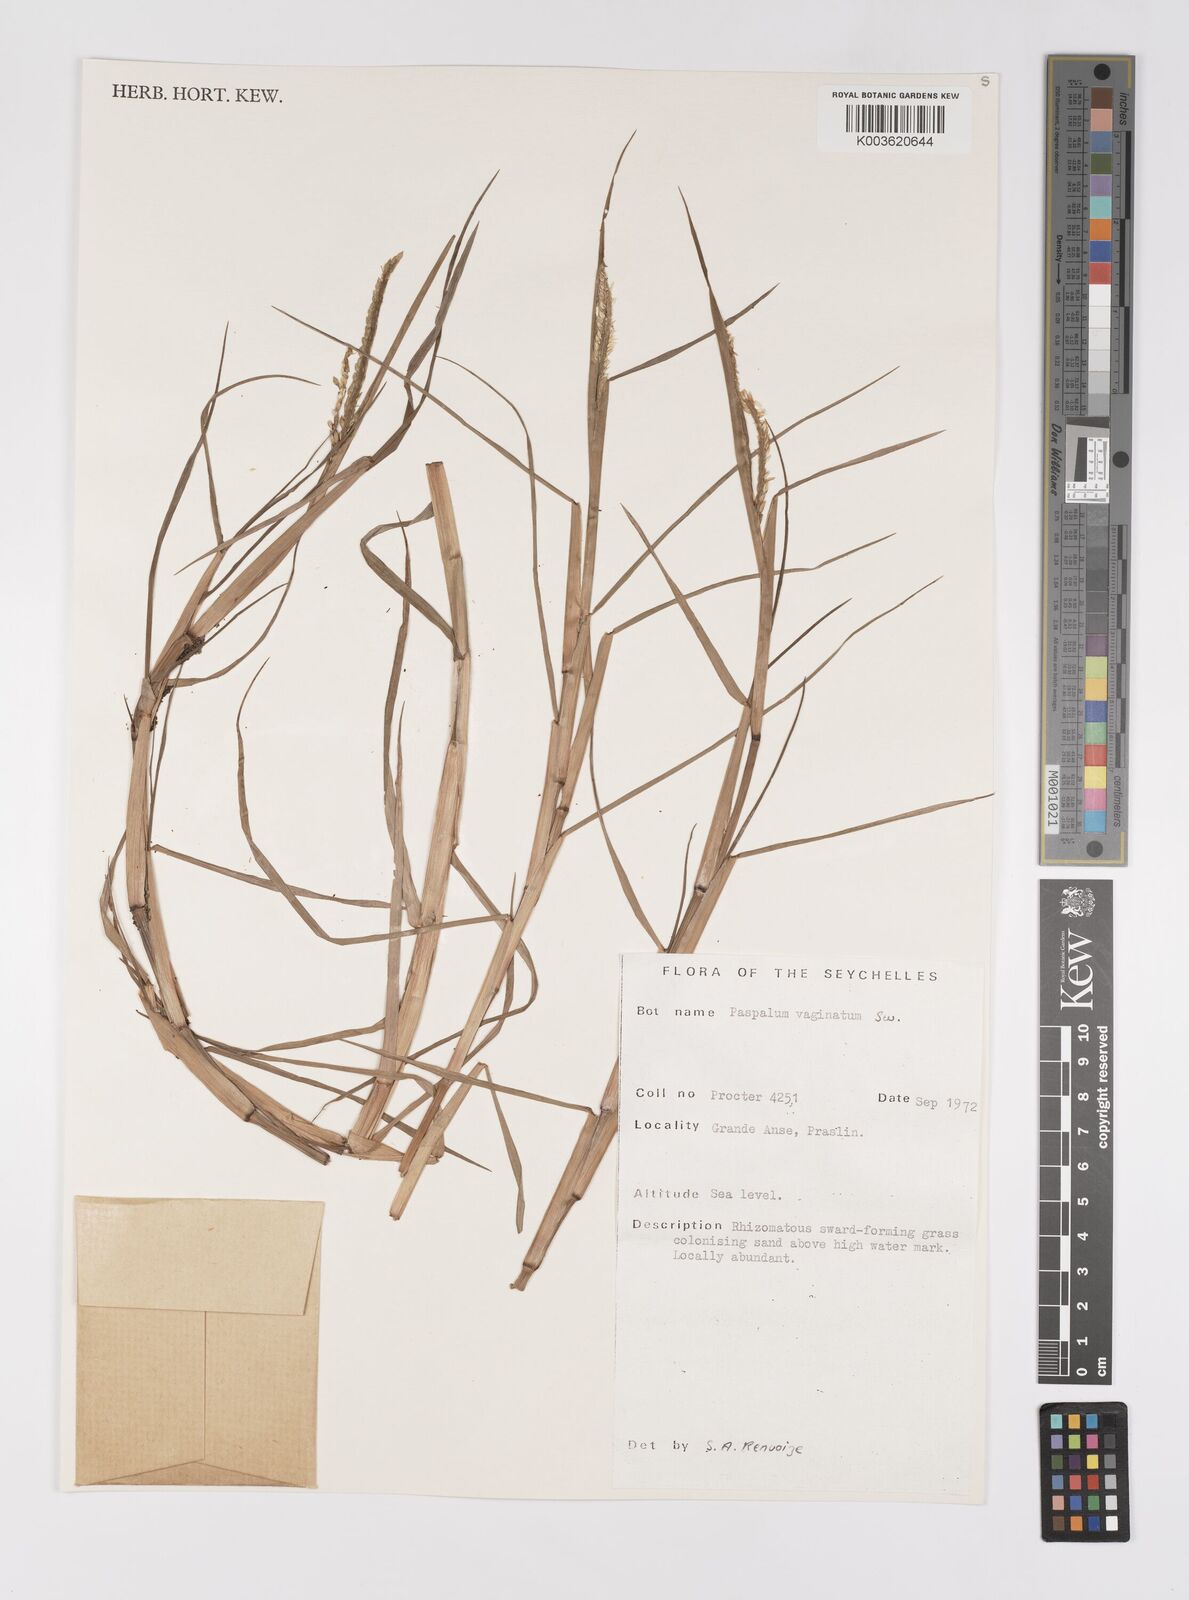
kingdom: Plantae
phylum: Tracheophyta
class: Liliopsida
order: Poales
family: Poaceae
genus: Paspalum
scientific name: Paspalum vaginatum
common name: Seashore paspalum
